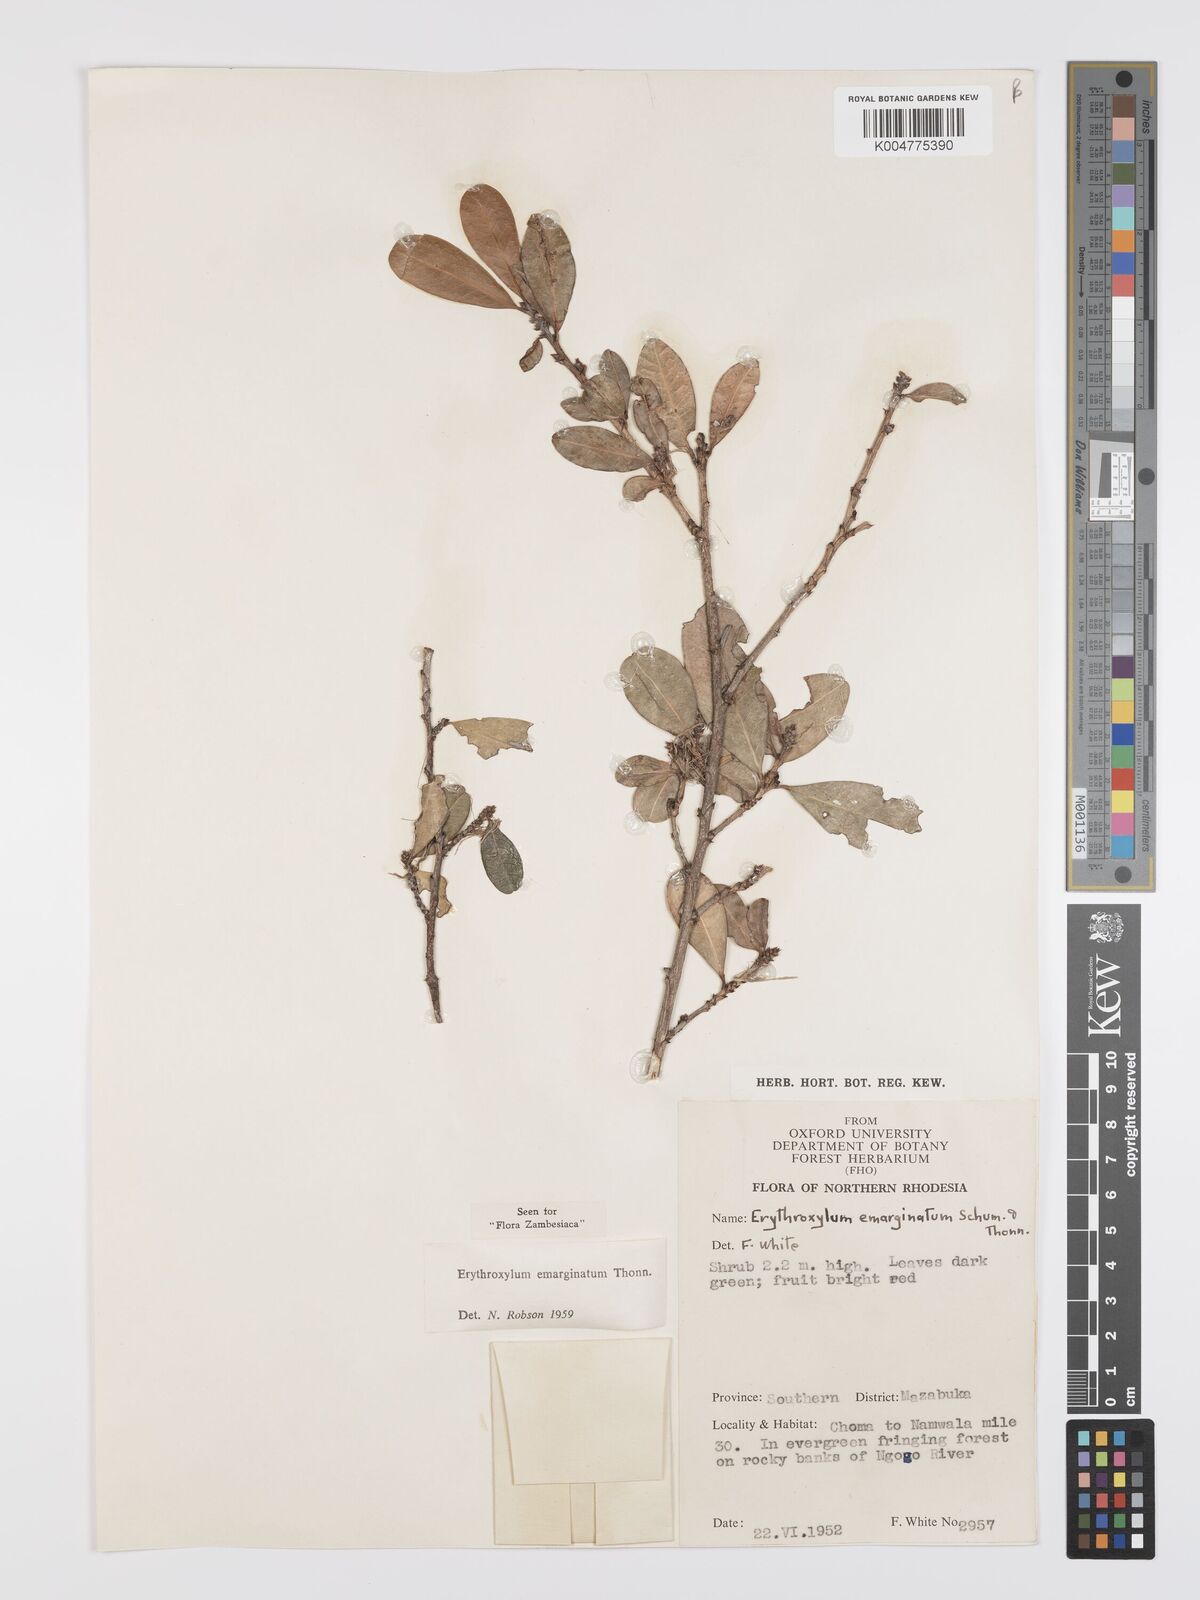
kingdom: Plantae
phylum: Tracheophyta
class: Magnoliopsida
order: Malpighiales
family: Erythroxylaceae
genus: Erythroxylum
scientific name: Erythroxylum emarginatum
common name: African coca-tree
